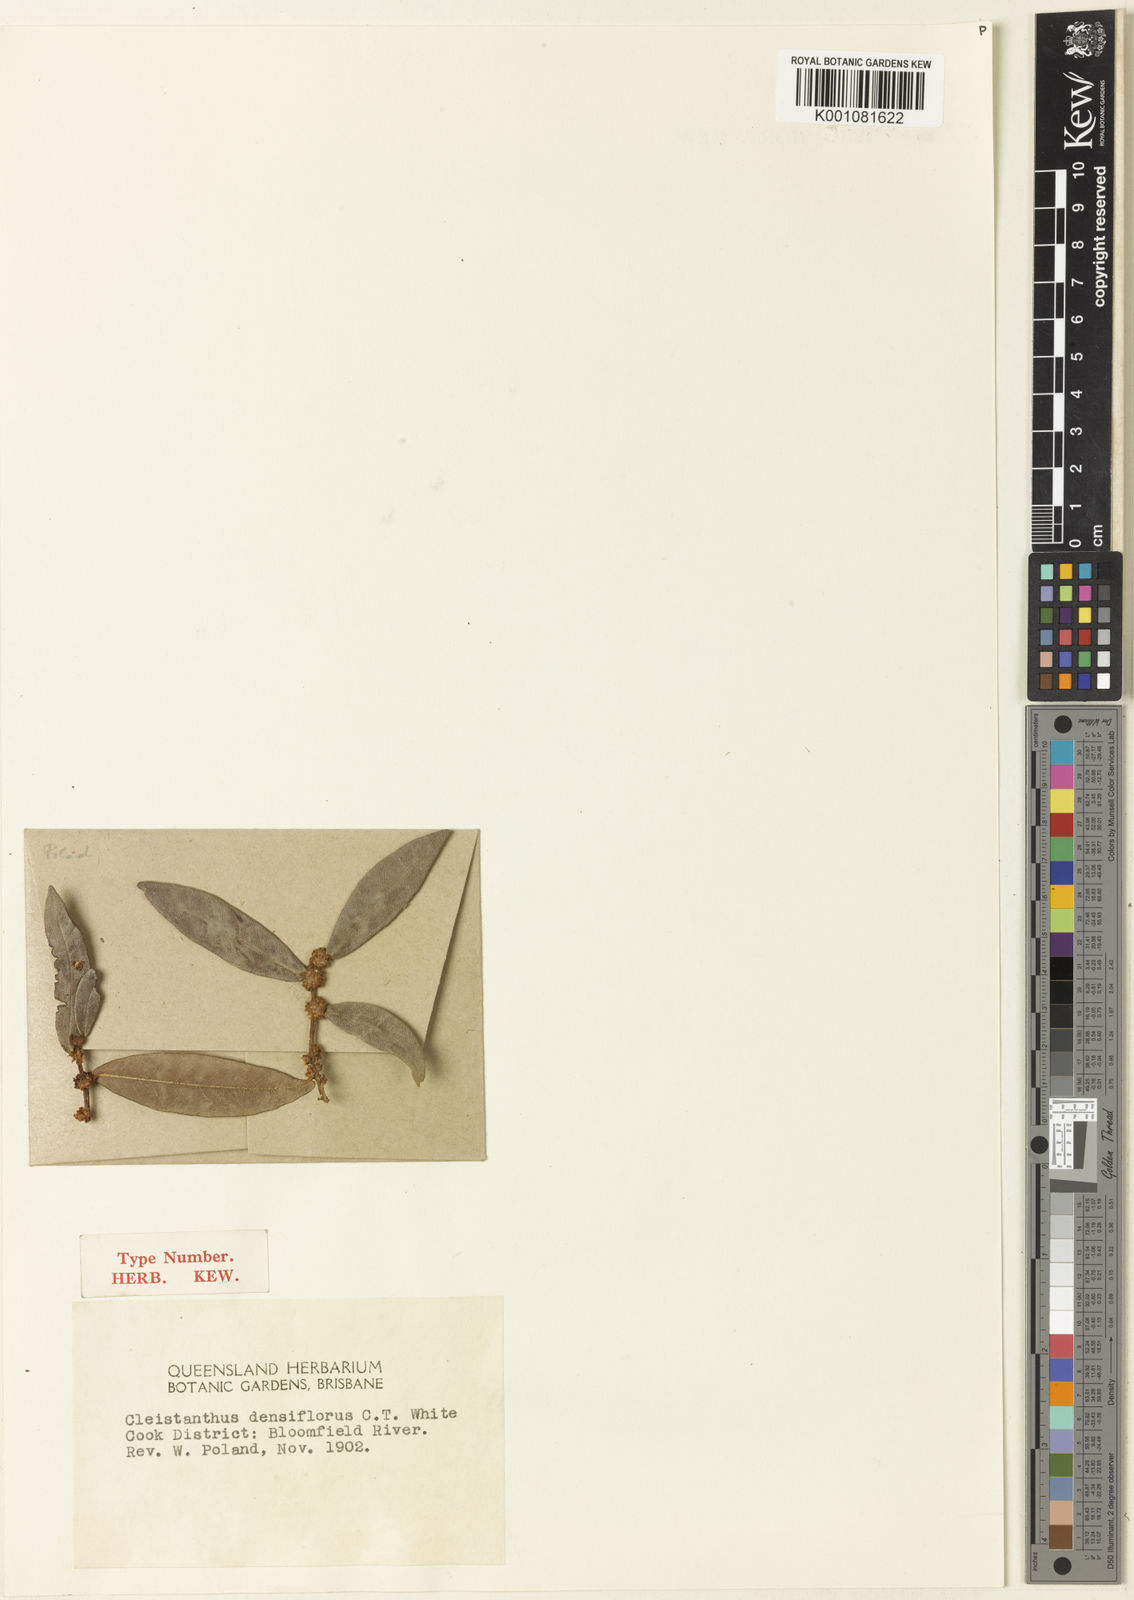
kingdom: Plantae
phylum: Tracheophyta
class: Magnoliopsida
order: Malpighiales
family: Phyllanthaceae
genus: Cleistanthus
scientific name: Cleistanthus xerophilus
